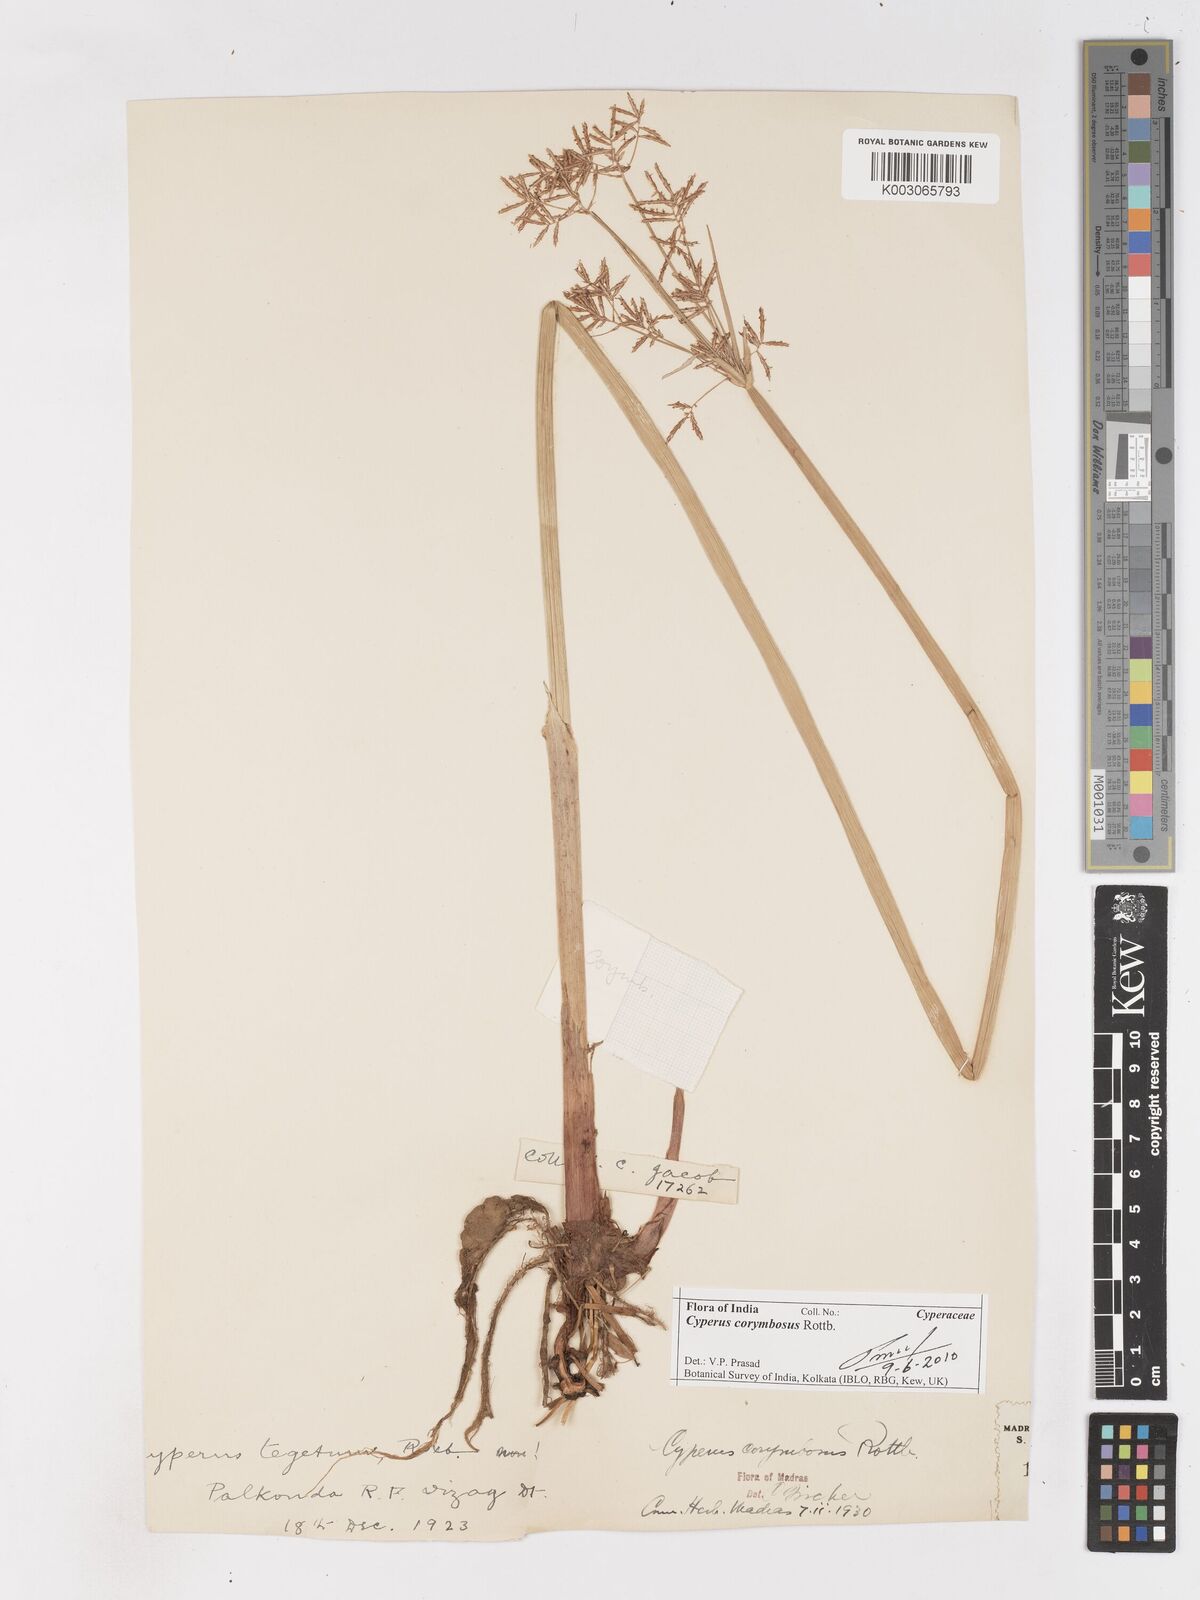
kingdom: Plantae
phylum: Tracheophyta
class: Liliopsida
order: Poales
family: Cyperaceae
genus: Cyperus
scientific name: Cyperus corymbosus
